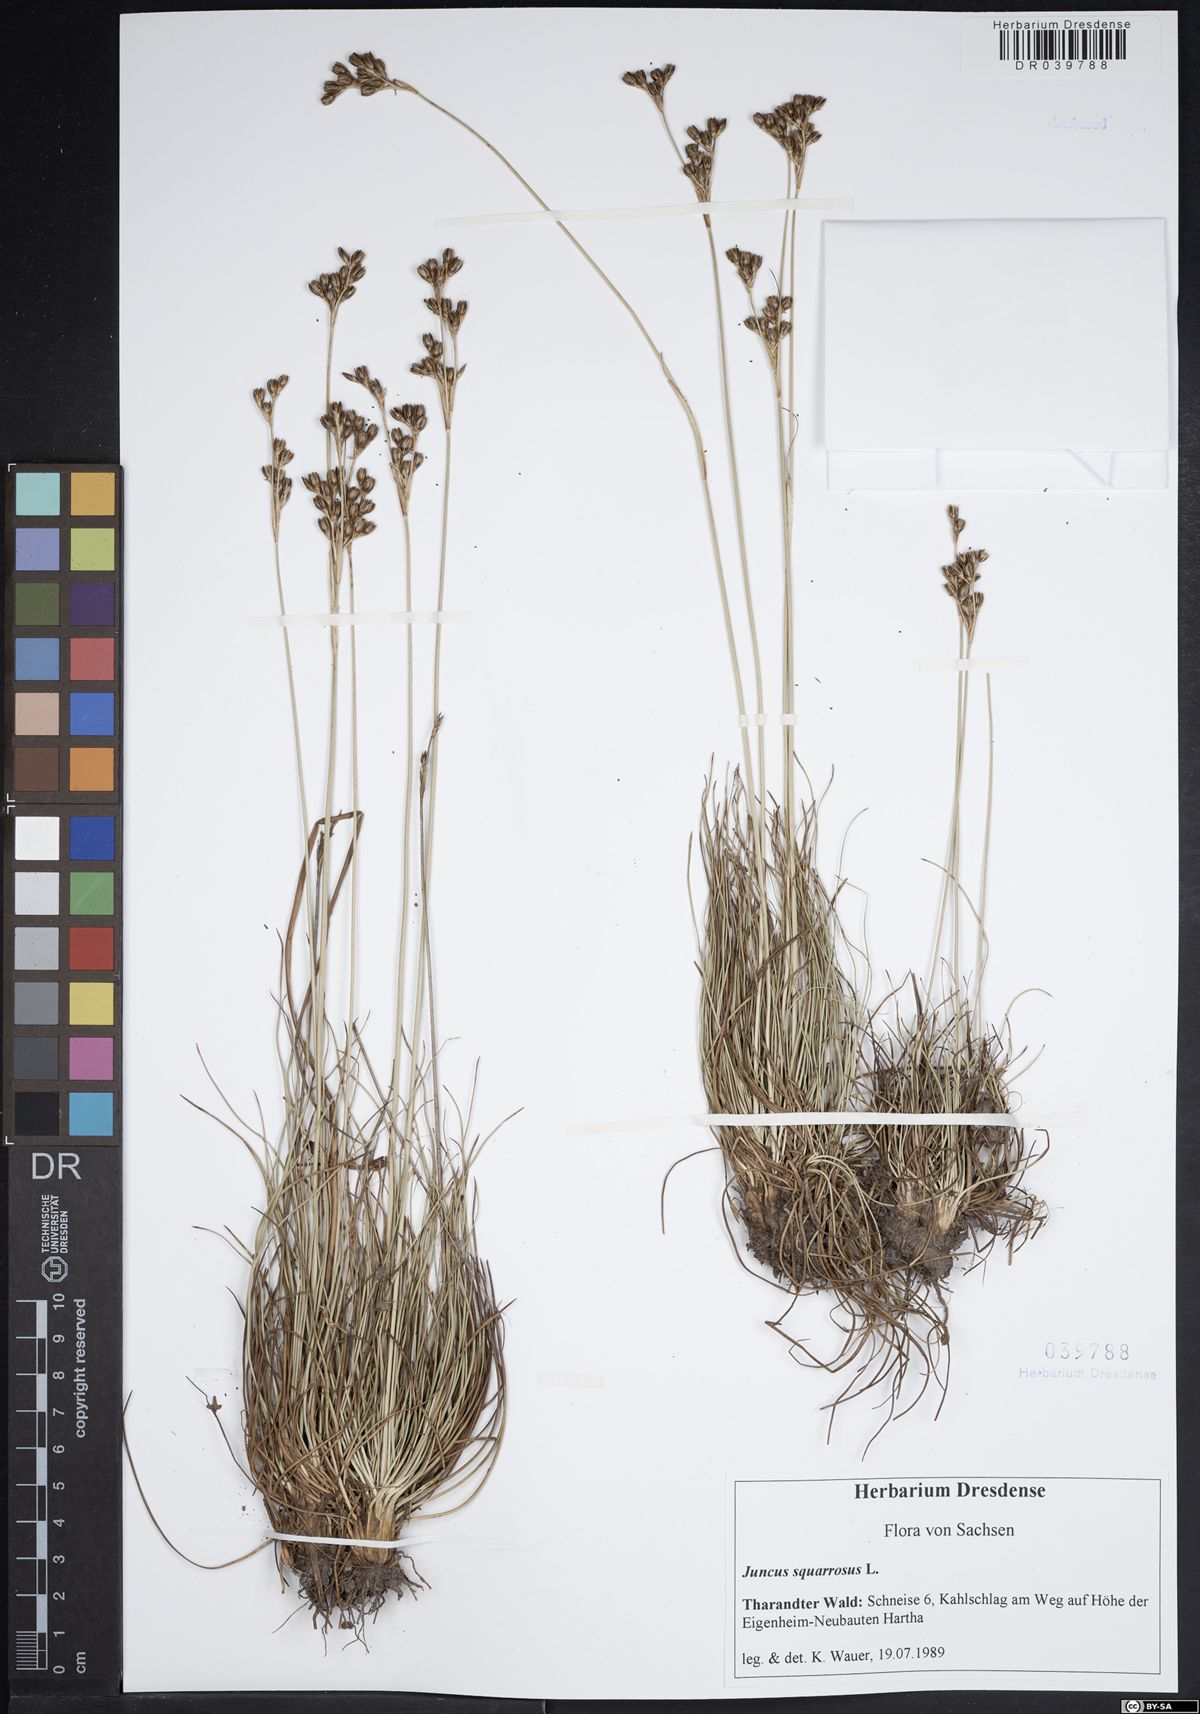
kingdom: Plantae
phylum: Tracheophyta
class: Liliopsida
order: Poales
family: Juncaceae
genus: Juncus
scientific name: Juncus squarrosus
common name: Heath rush
